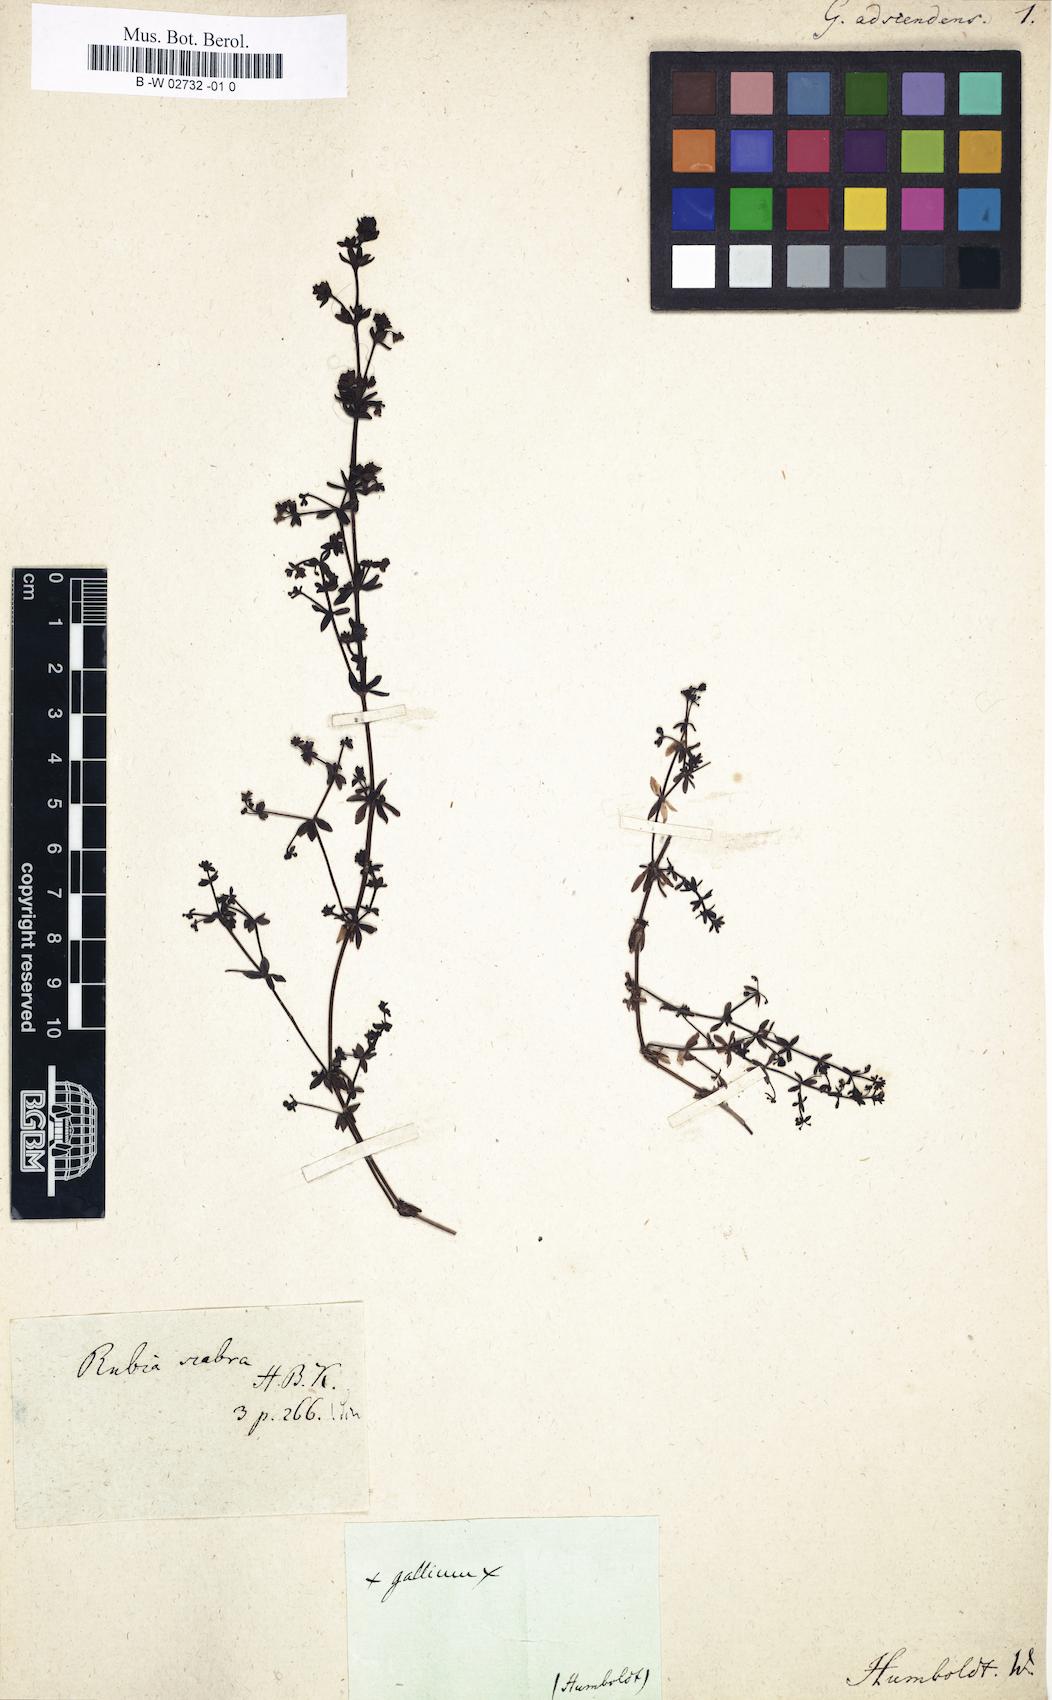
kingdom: Plantae
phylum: Tracheophyta
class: Magnoliopsida
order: Gentianales
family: Rubiaceae
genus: Galium
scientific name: Galium
